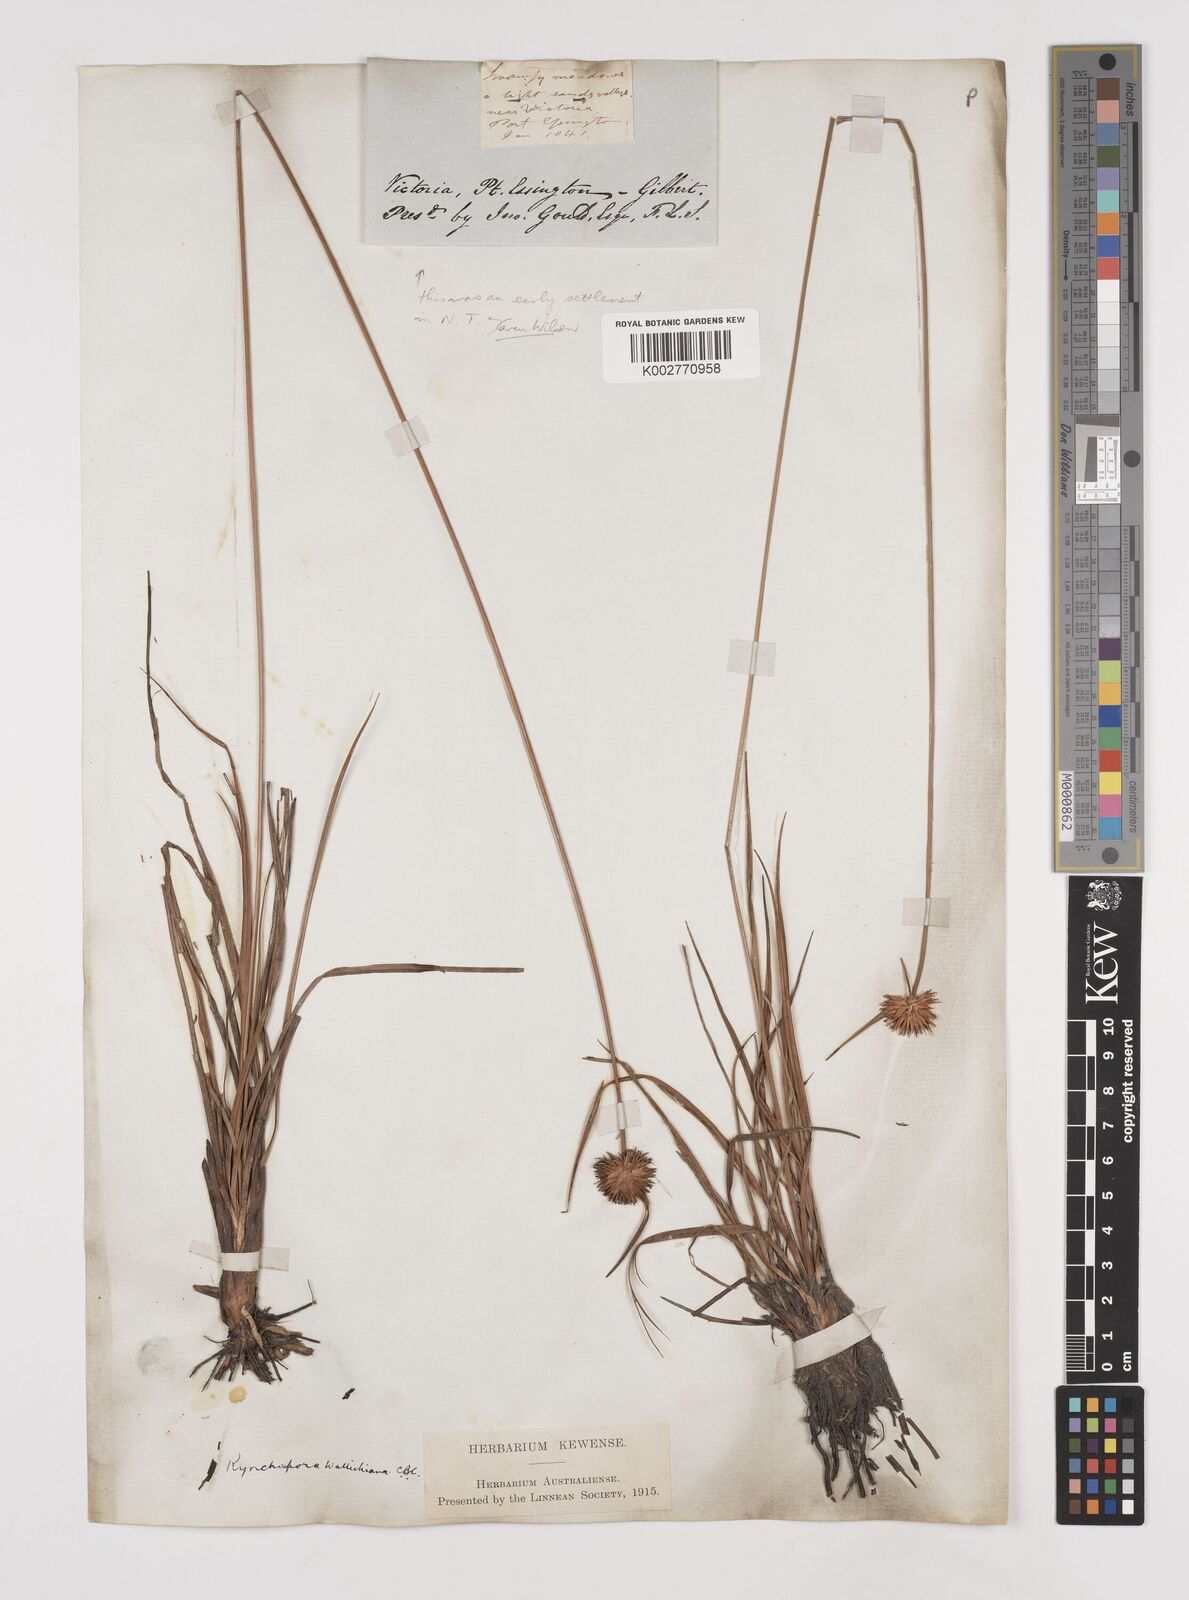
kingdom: Plantae
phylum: Tracheophyta
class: Liliopsida
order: Poales
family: Cyperaceae
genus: Rhynchospora
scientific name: Rhynchospora rubra
